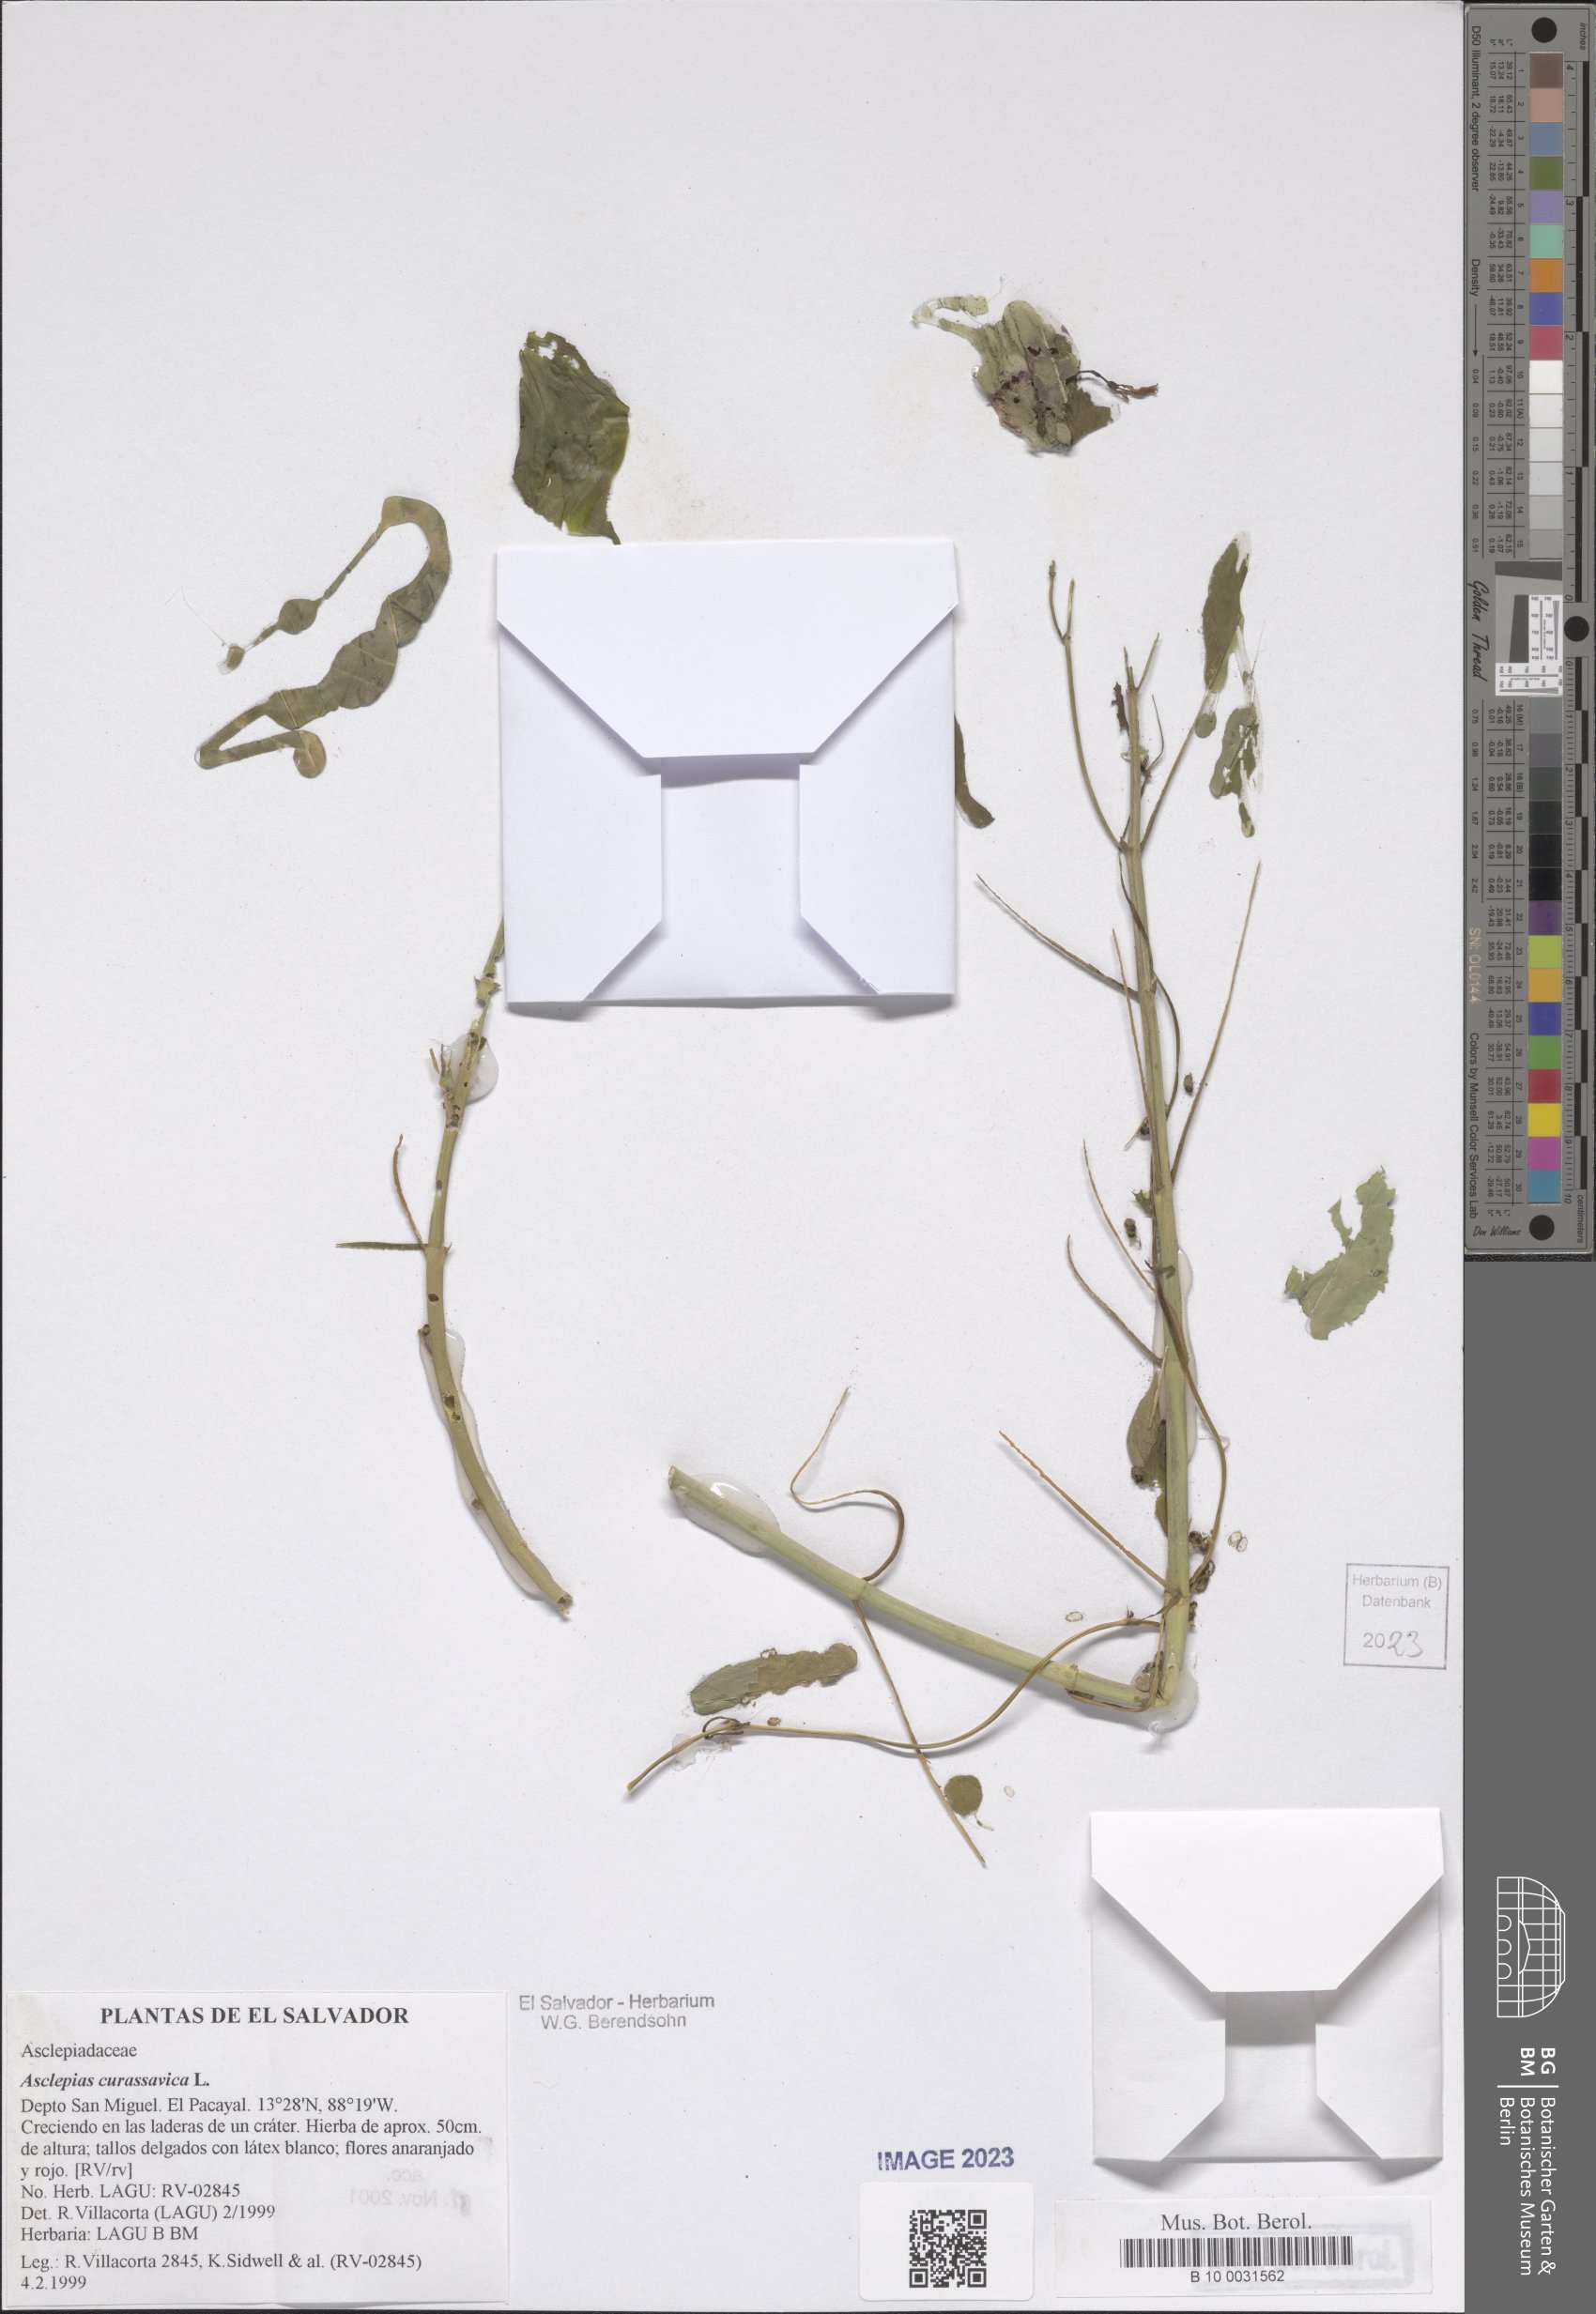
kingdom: Plantae
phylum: Tracheophyta
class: Magnoliopsida
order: Gentianales
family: Apocynaceae
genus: Asclepias
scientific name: Asclepias curassavica
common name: Bloodflower
